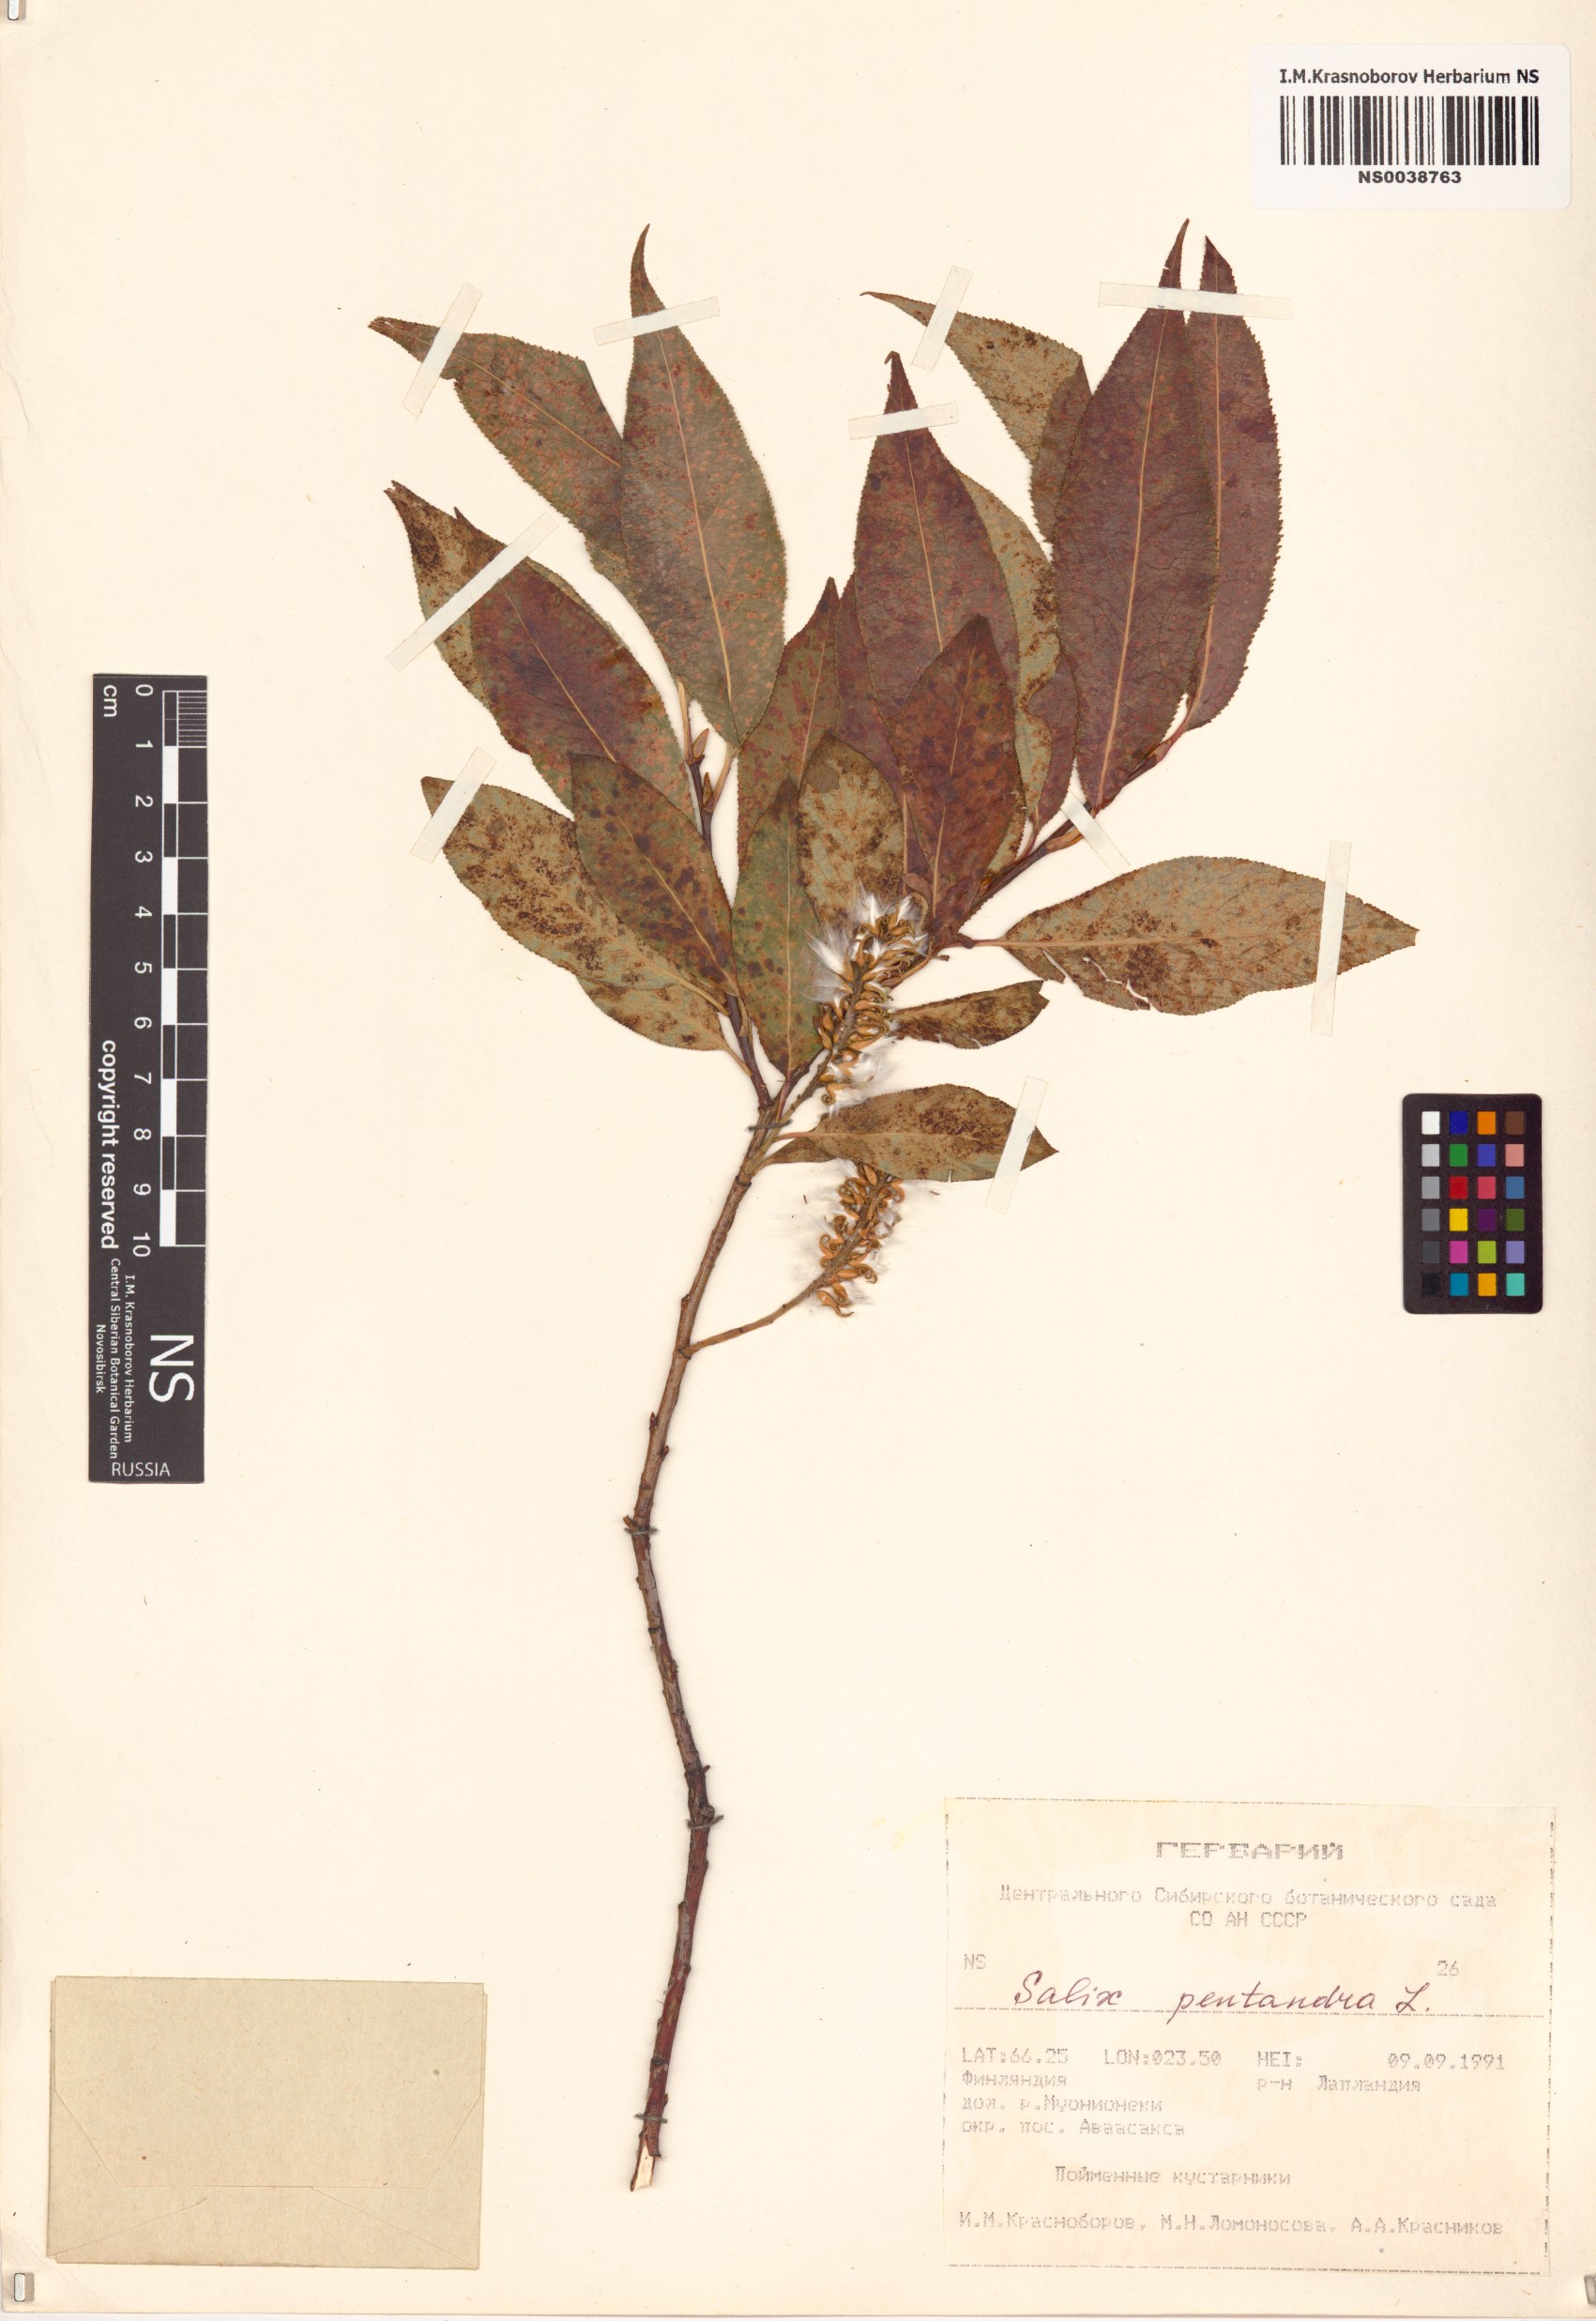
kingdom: Plantae
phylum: Tracheophyta
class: Magnoliopsida
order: Malpighiales
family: Salicaceae
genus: Salix
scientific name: Salix pentandra
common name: Bay willow
